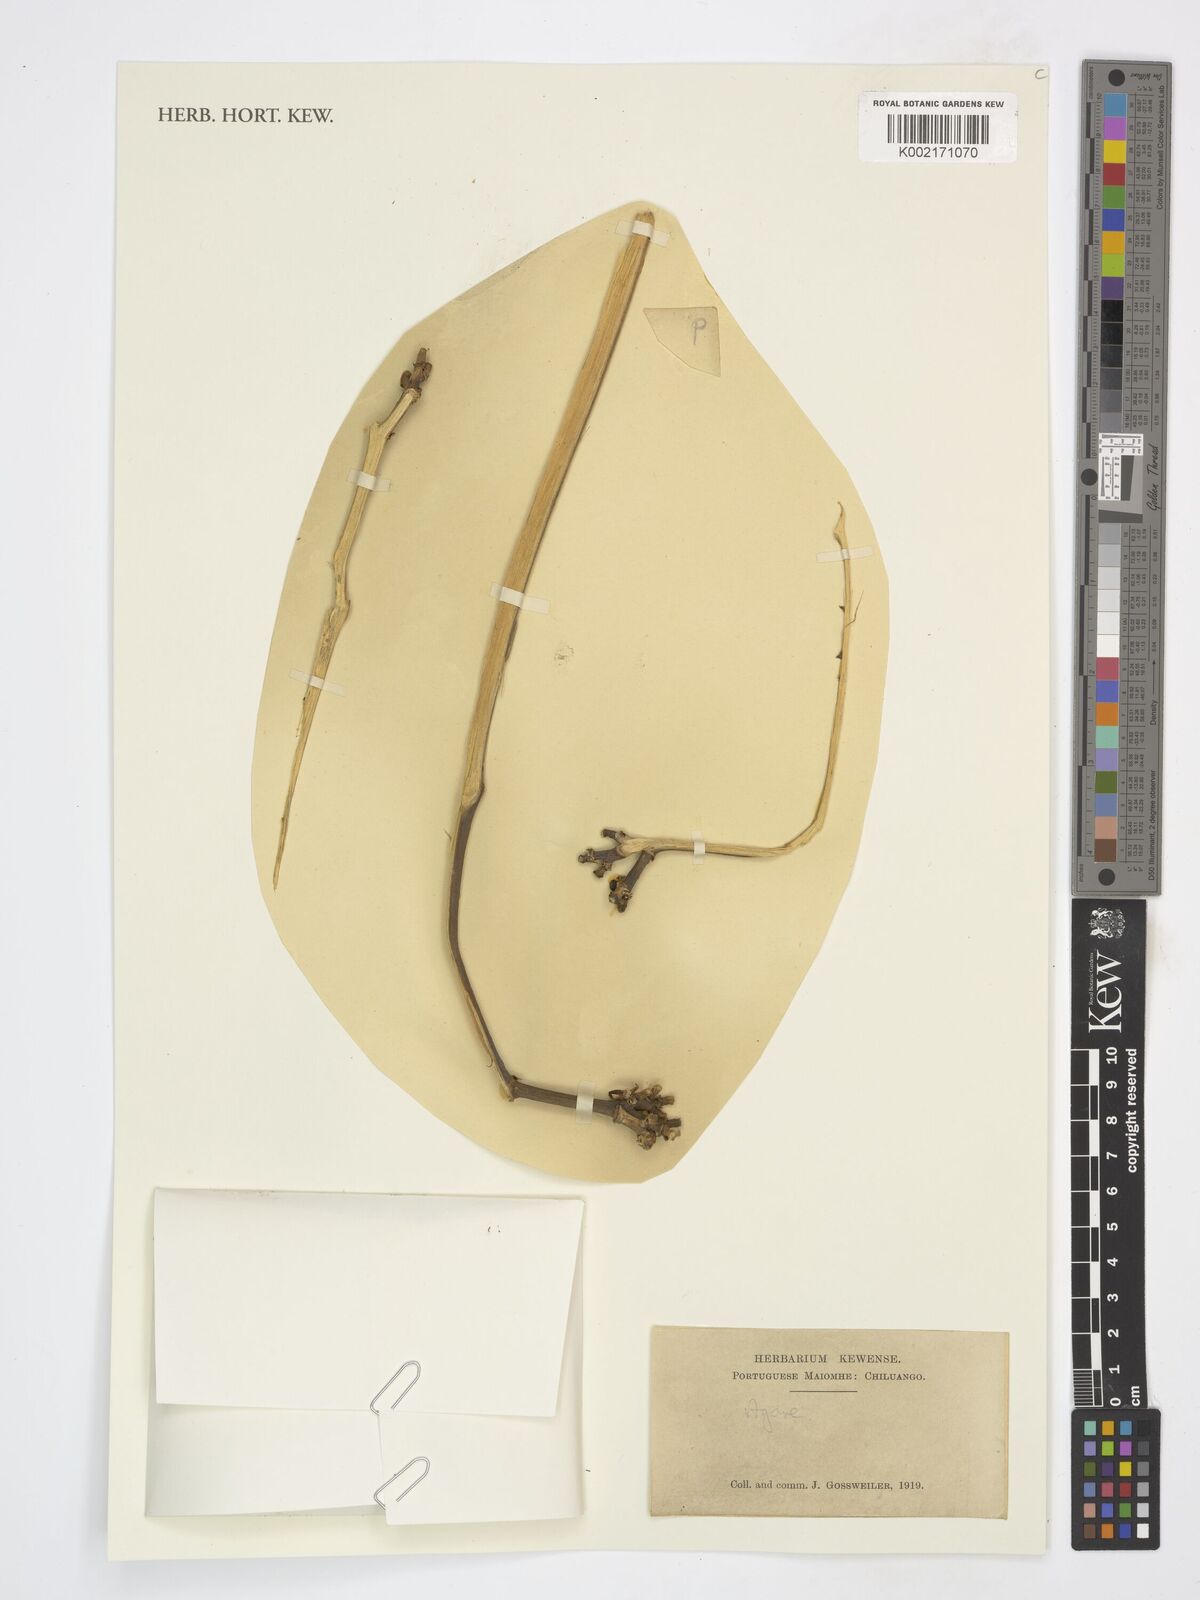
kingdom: Plantae
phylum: Tracheophyta
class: Liliopsida
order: Asparagales
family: Asparagaceae
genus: Agave
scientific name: Agave
